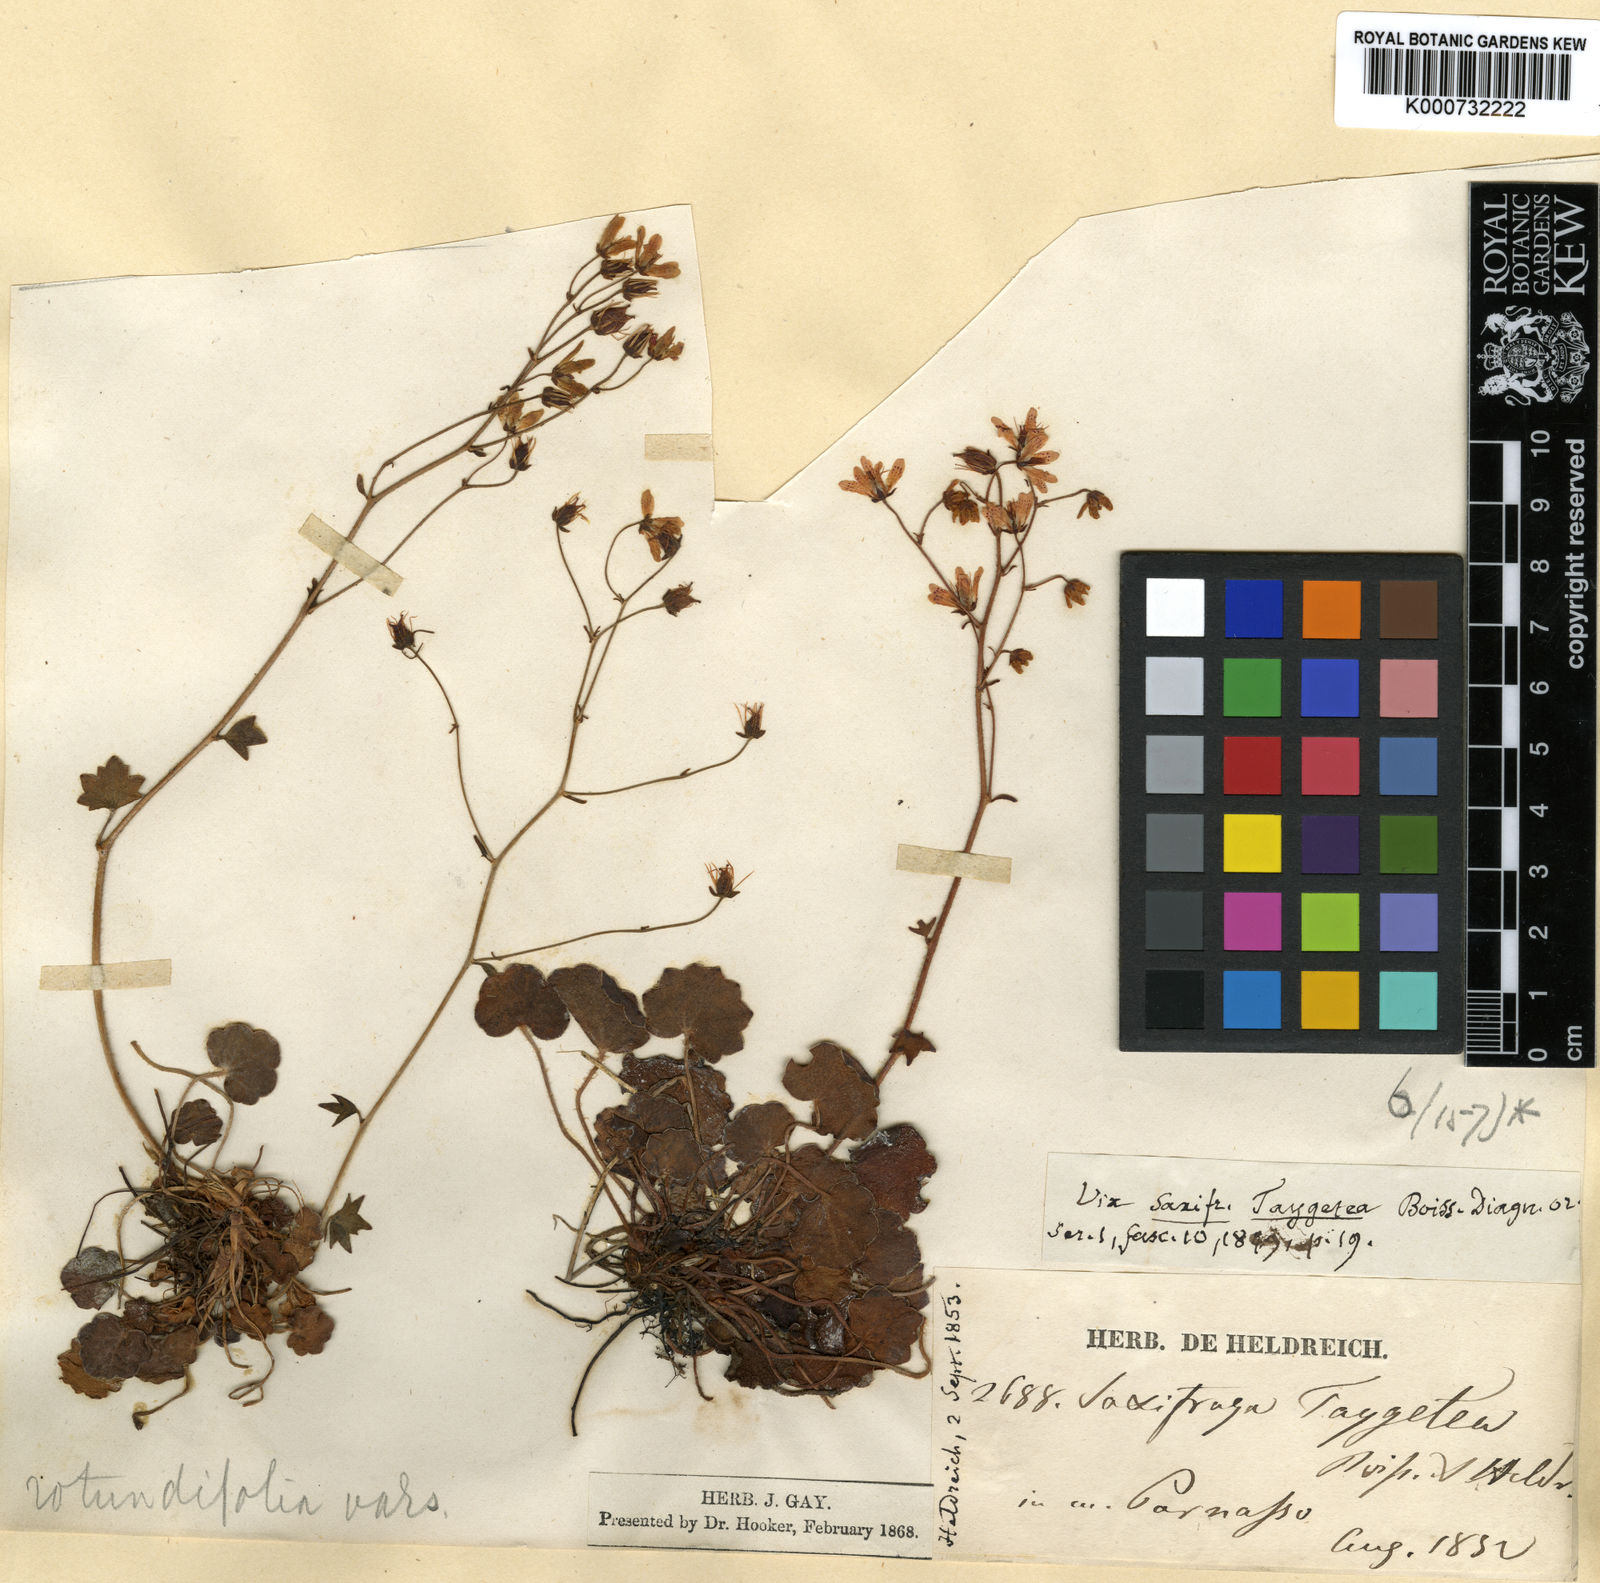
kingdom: Plantae
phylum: Tracheophyta
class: Magnoliopsida
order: Saxifragales
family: Saxifragaceae
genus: Saxifraga
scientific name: Saxifraga taygetea
